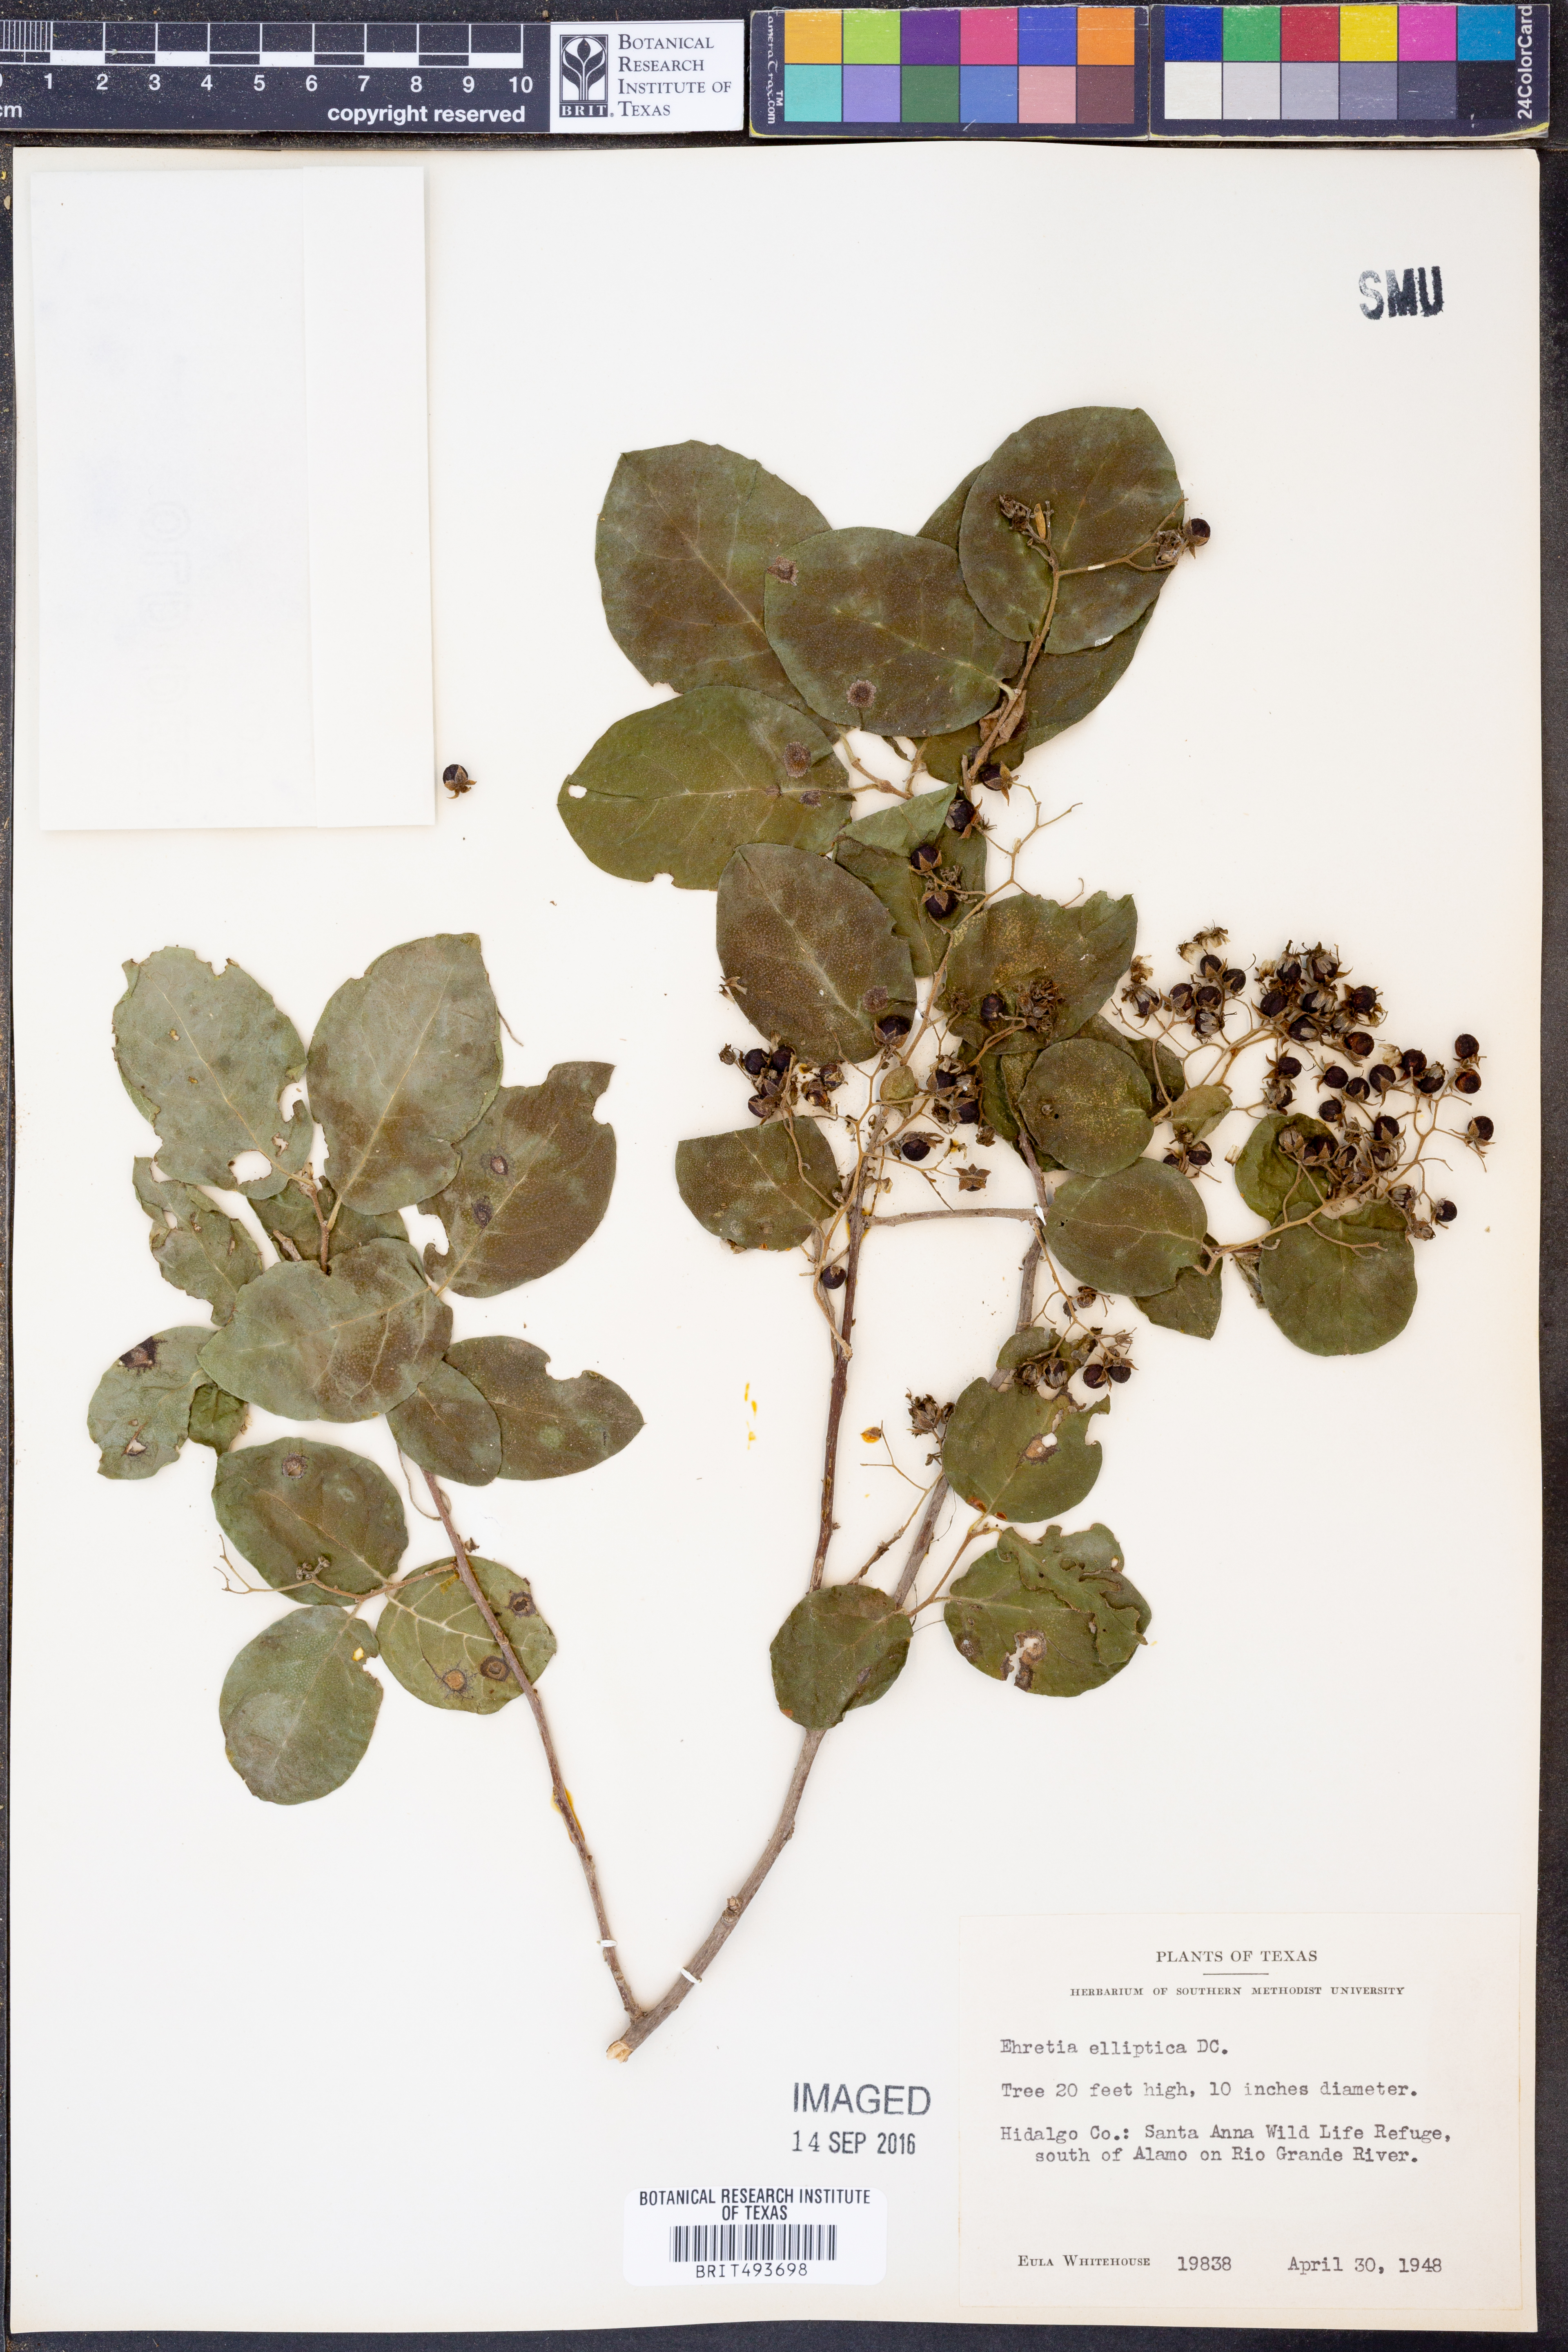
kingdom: Plantae
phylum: Tracheophyta
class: Magnoliopsida
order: Boraginales
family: Ehretiaceae
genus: Ehretia
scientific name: Ehretia anacua
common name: Sugarberry
